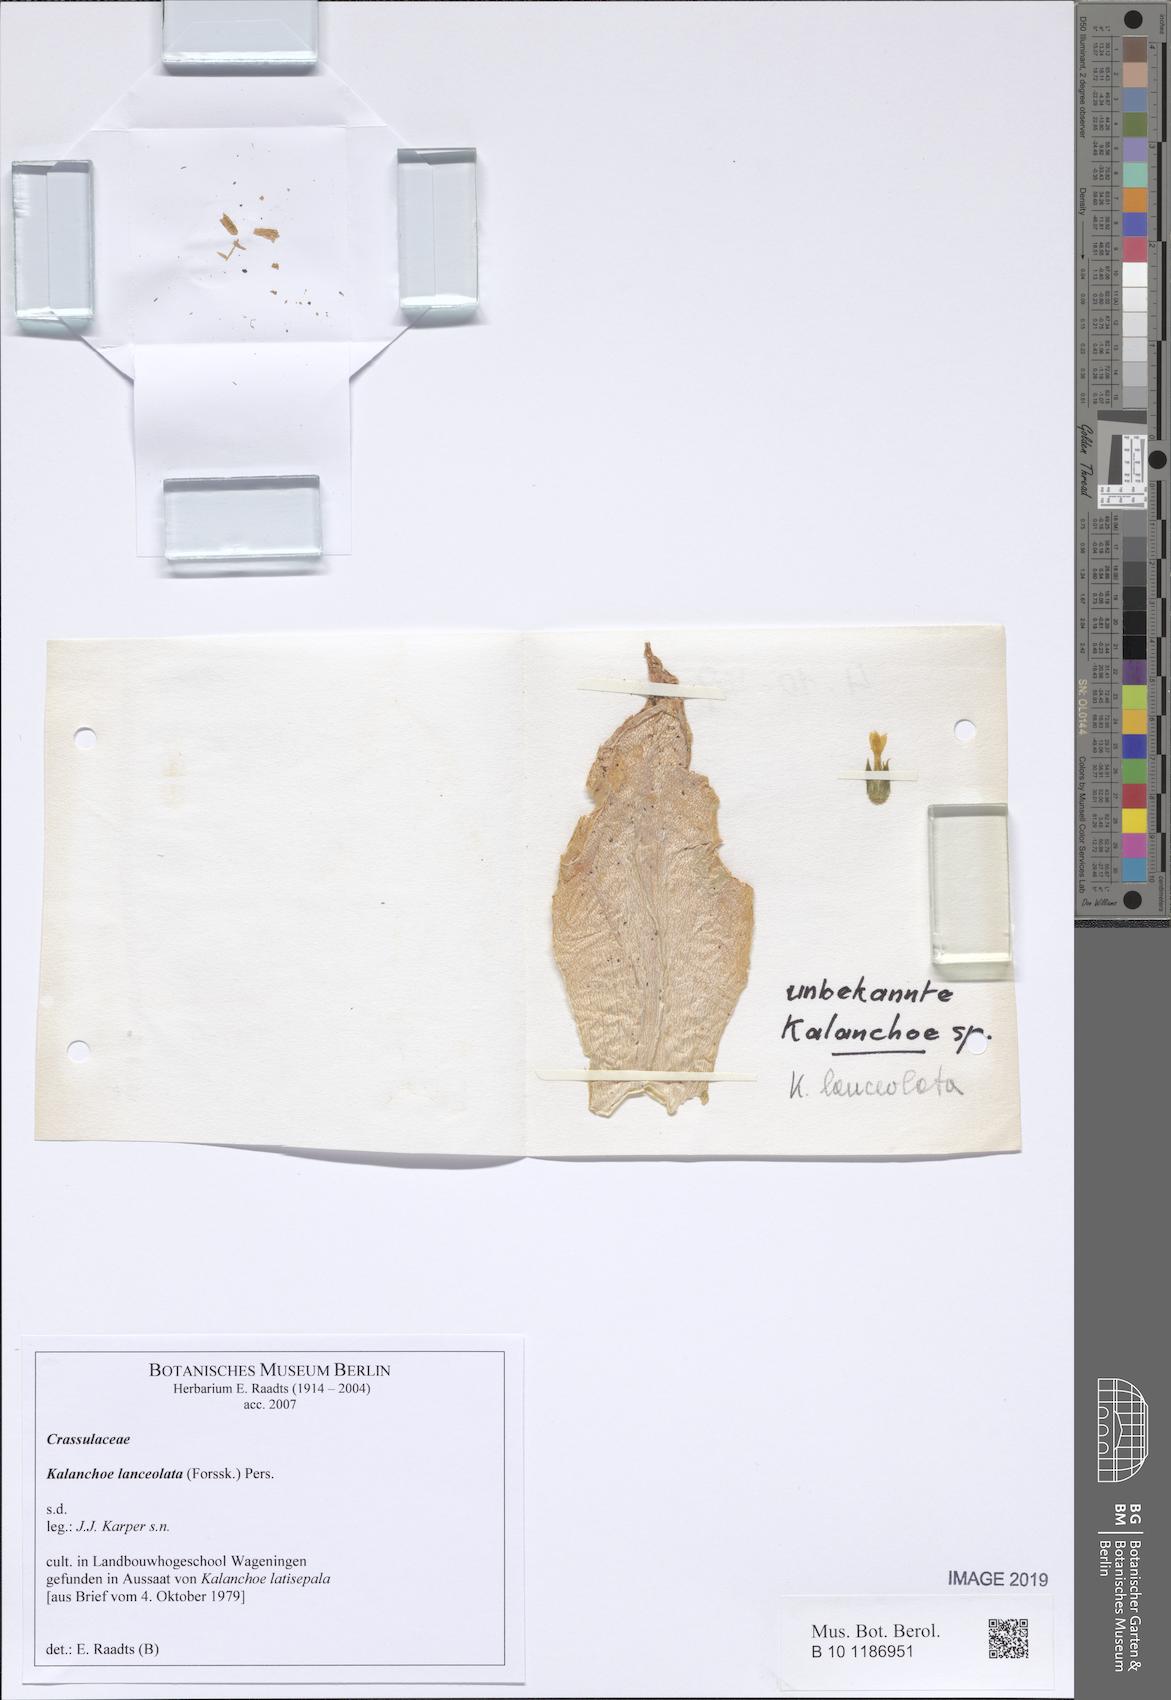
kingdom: Plantae
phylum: Tracheophyta
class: Magnoliopsida
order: Saxifragales
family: Crassulaceae
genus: Kalanchoe
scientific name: Kalanchoe lanceolata
